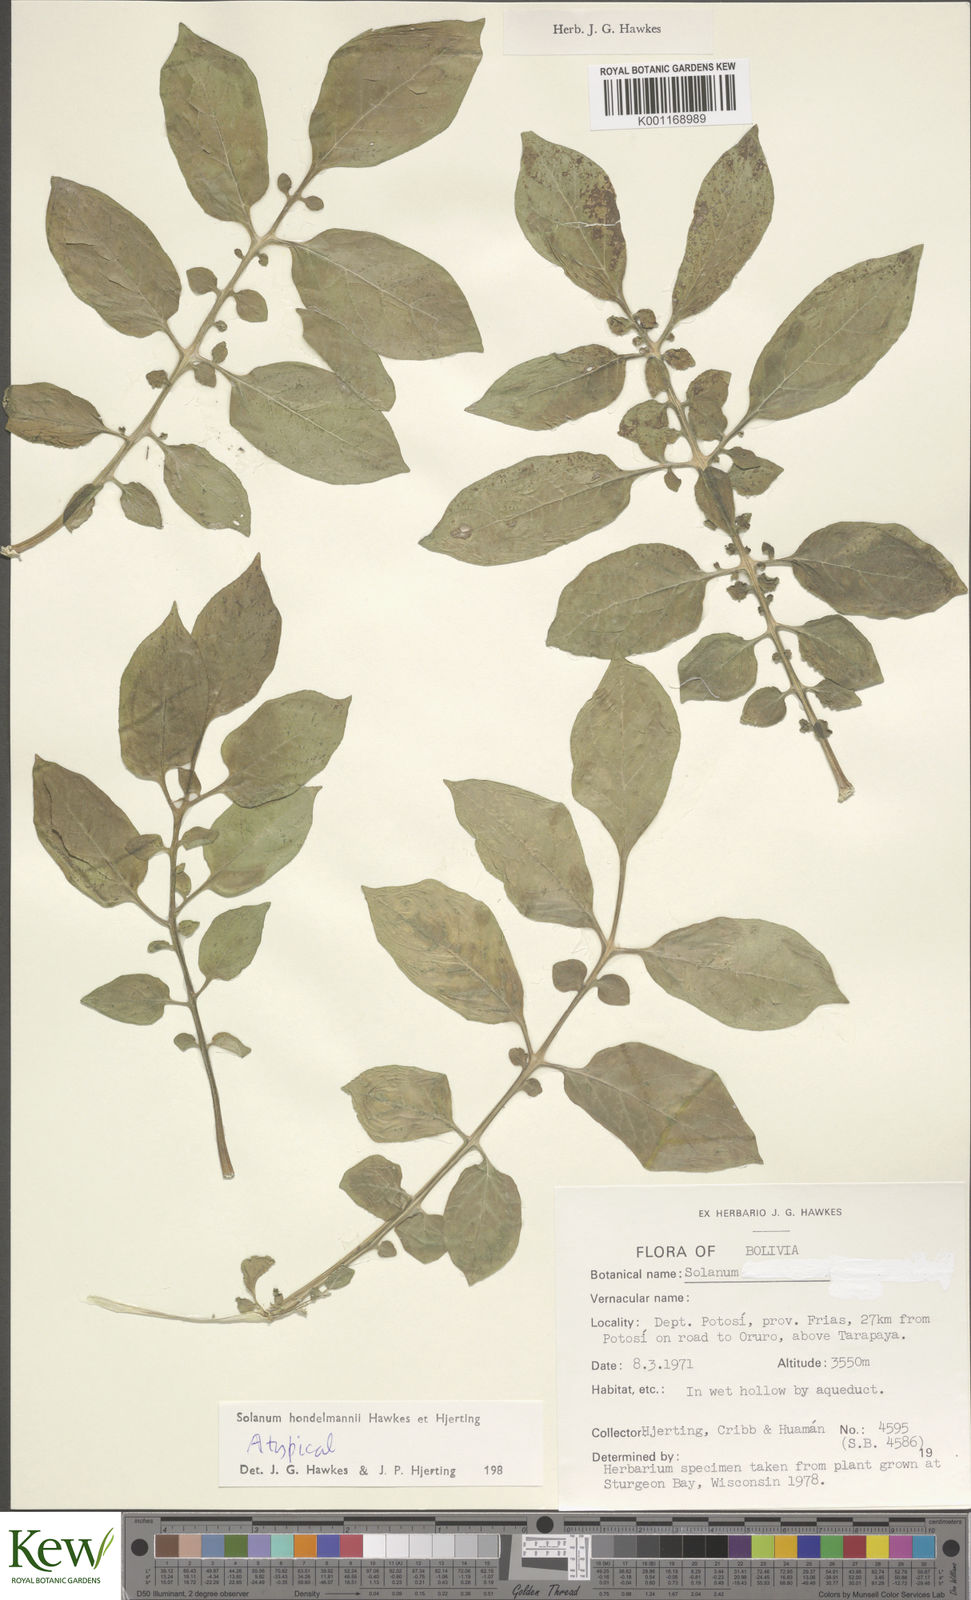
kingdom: Plantae
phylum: Tracheophyta
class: Magnoliopsida
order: Solanales
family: Solanaceae
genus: Solanum
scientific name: Solanum brevicaule
